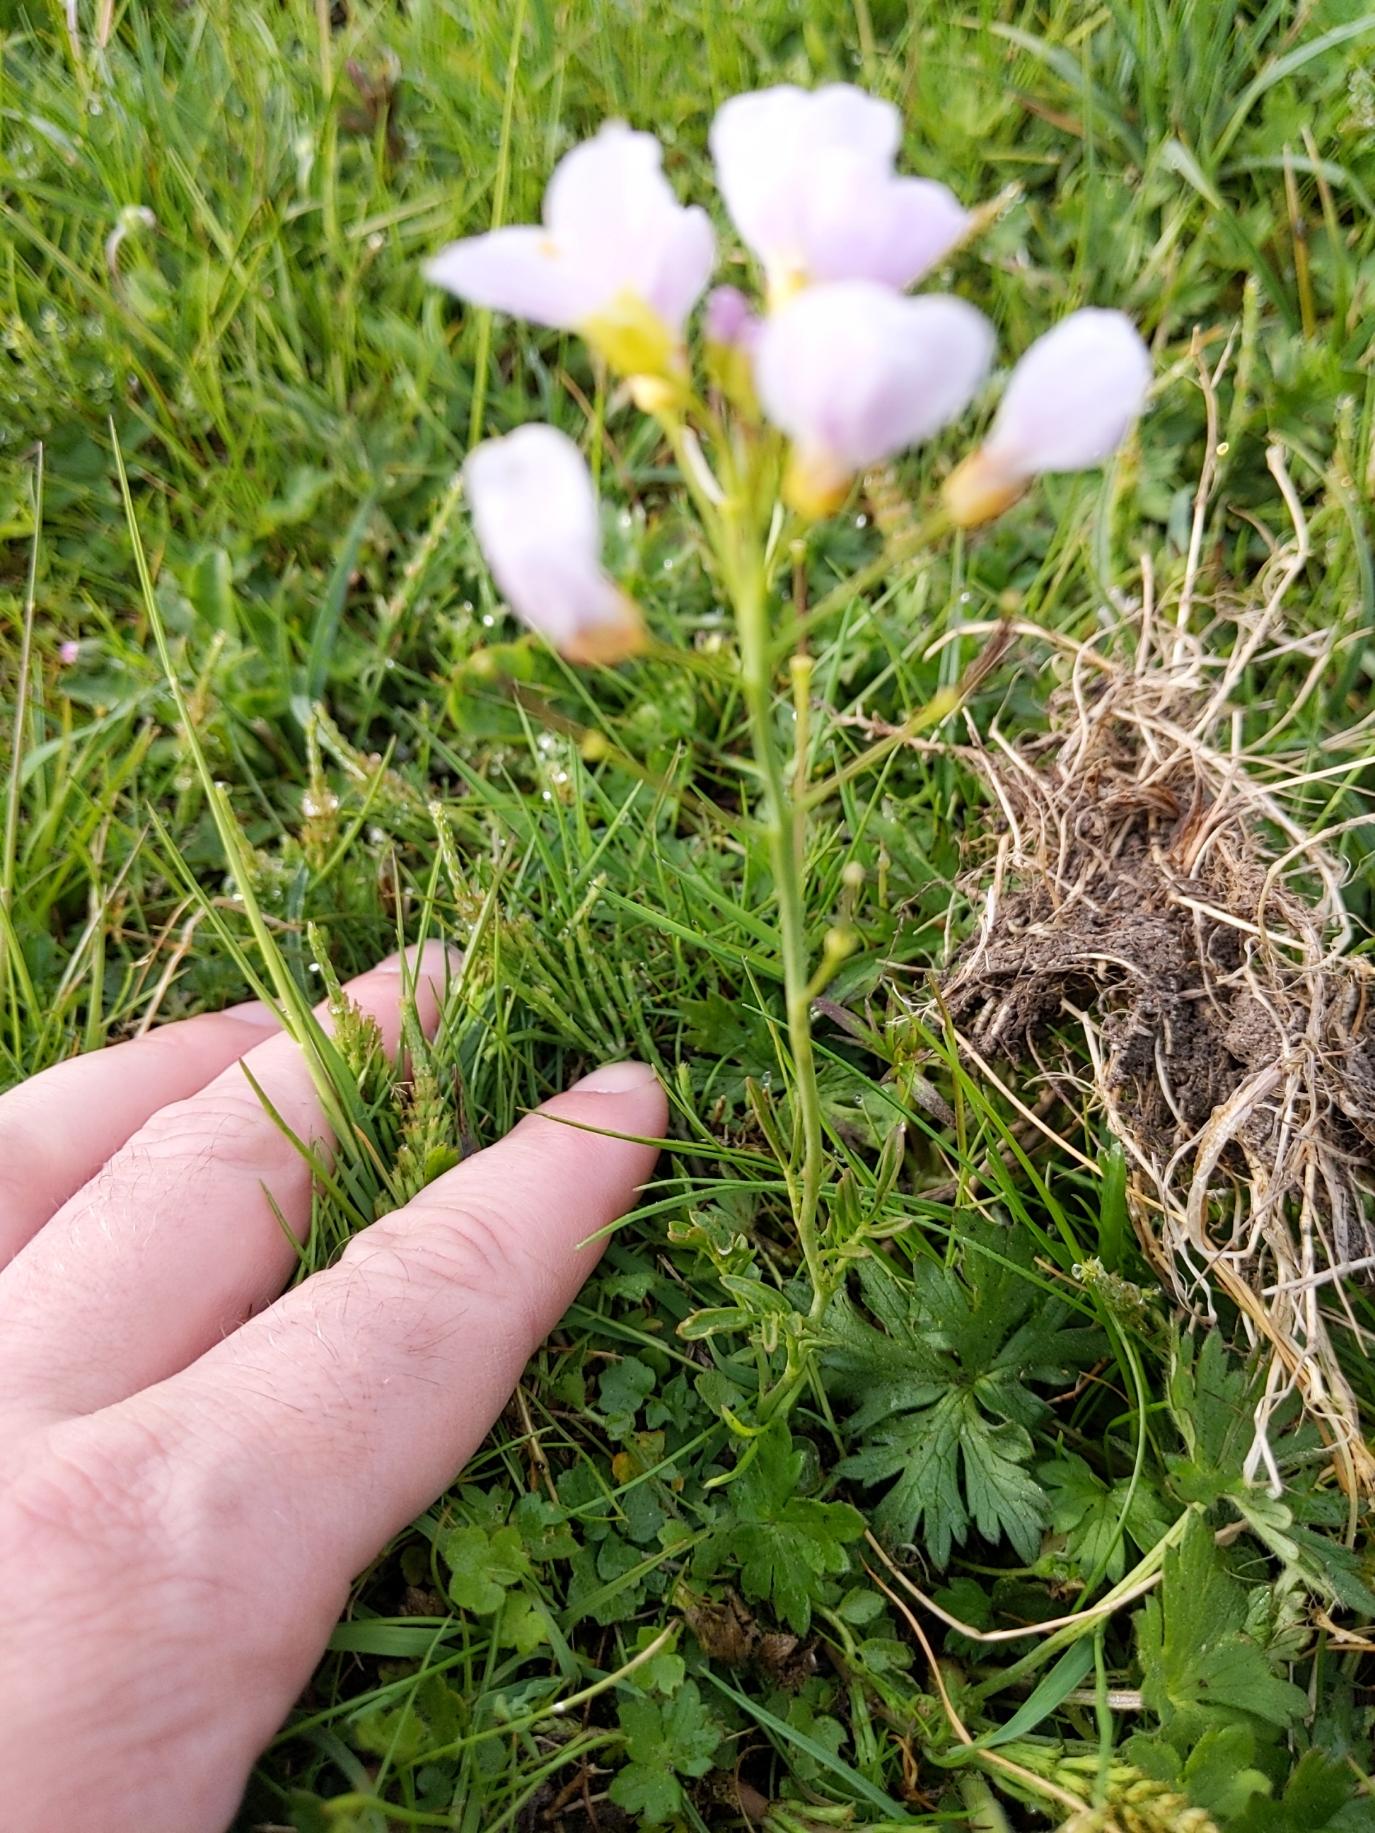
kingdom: Plantae
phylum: Tracheophyta
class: Magnoliopsida
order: Brassicales
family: Brassicaceae
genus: Cardamine
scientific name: Cardamine pratensis
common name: Engkarse
